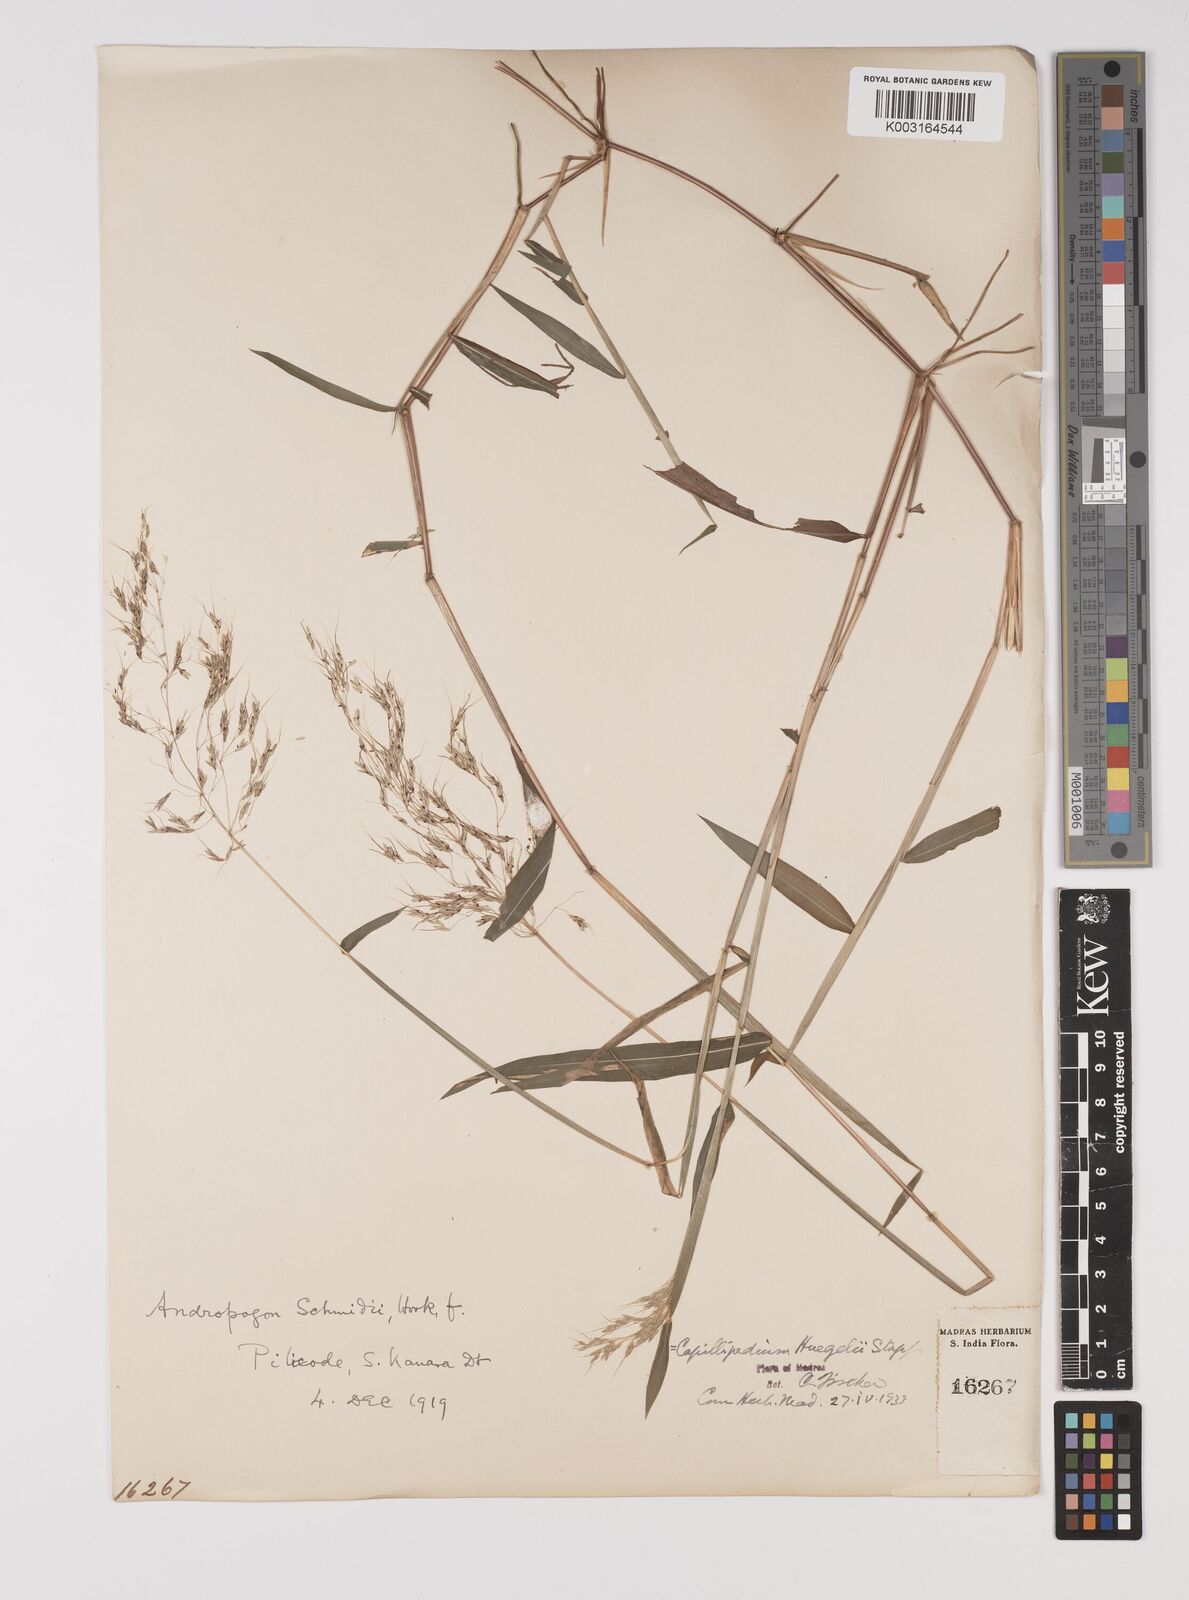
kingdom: Plantae
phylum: Tracheophyta
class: Liliopsida
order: Poales
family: Poaceae
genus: Capillipedium
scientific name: Capillipedium huegelii
